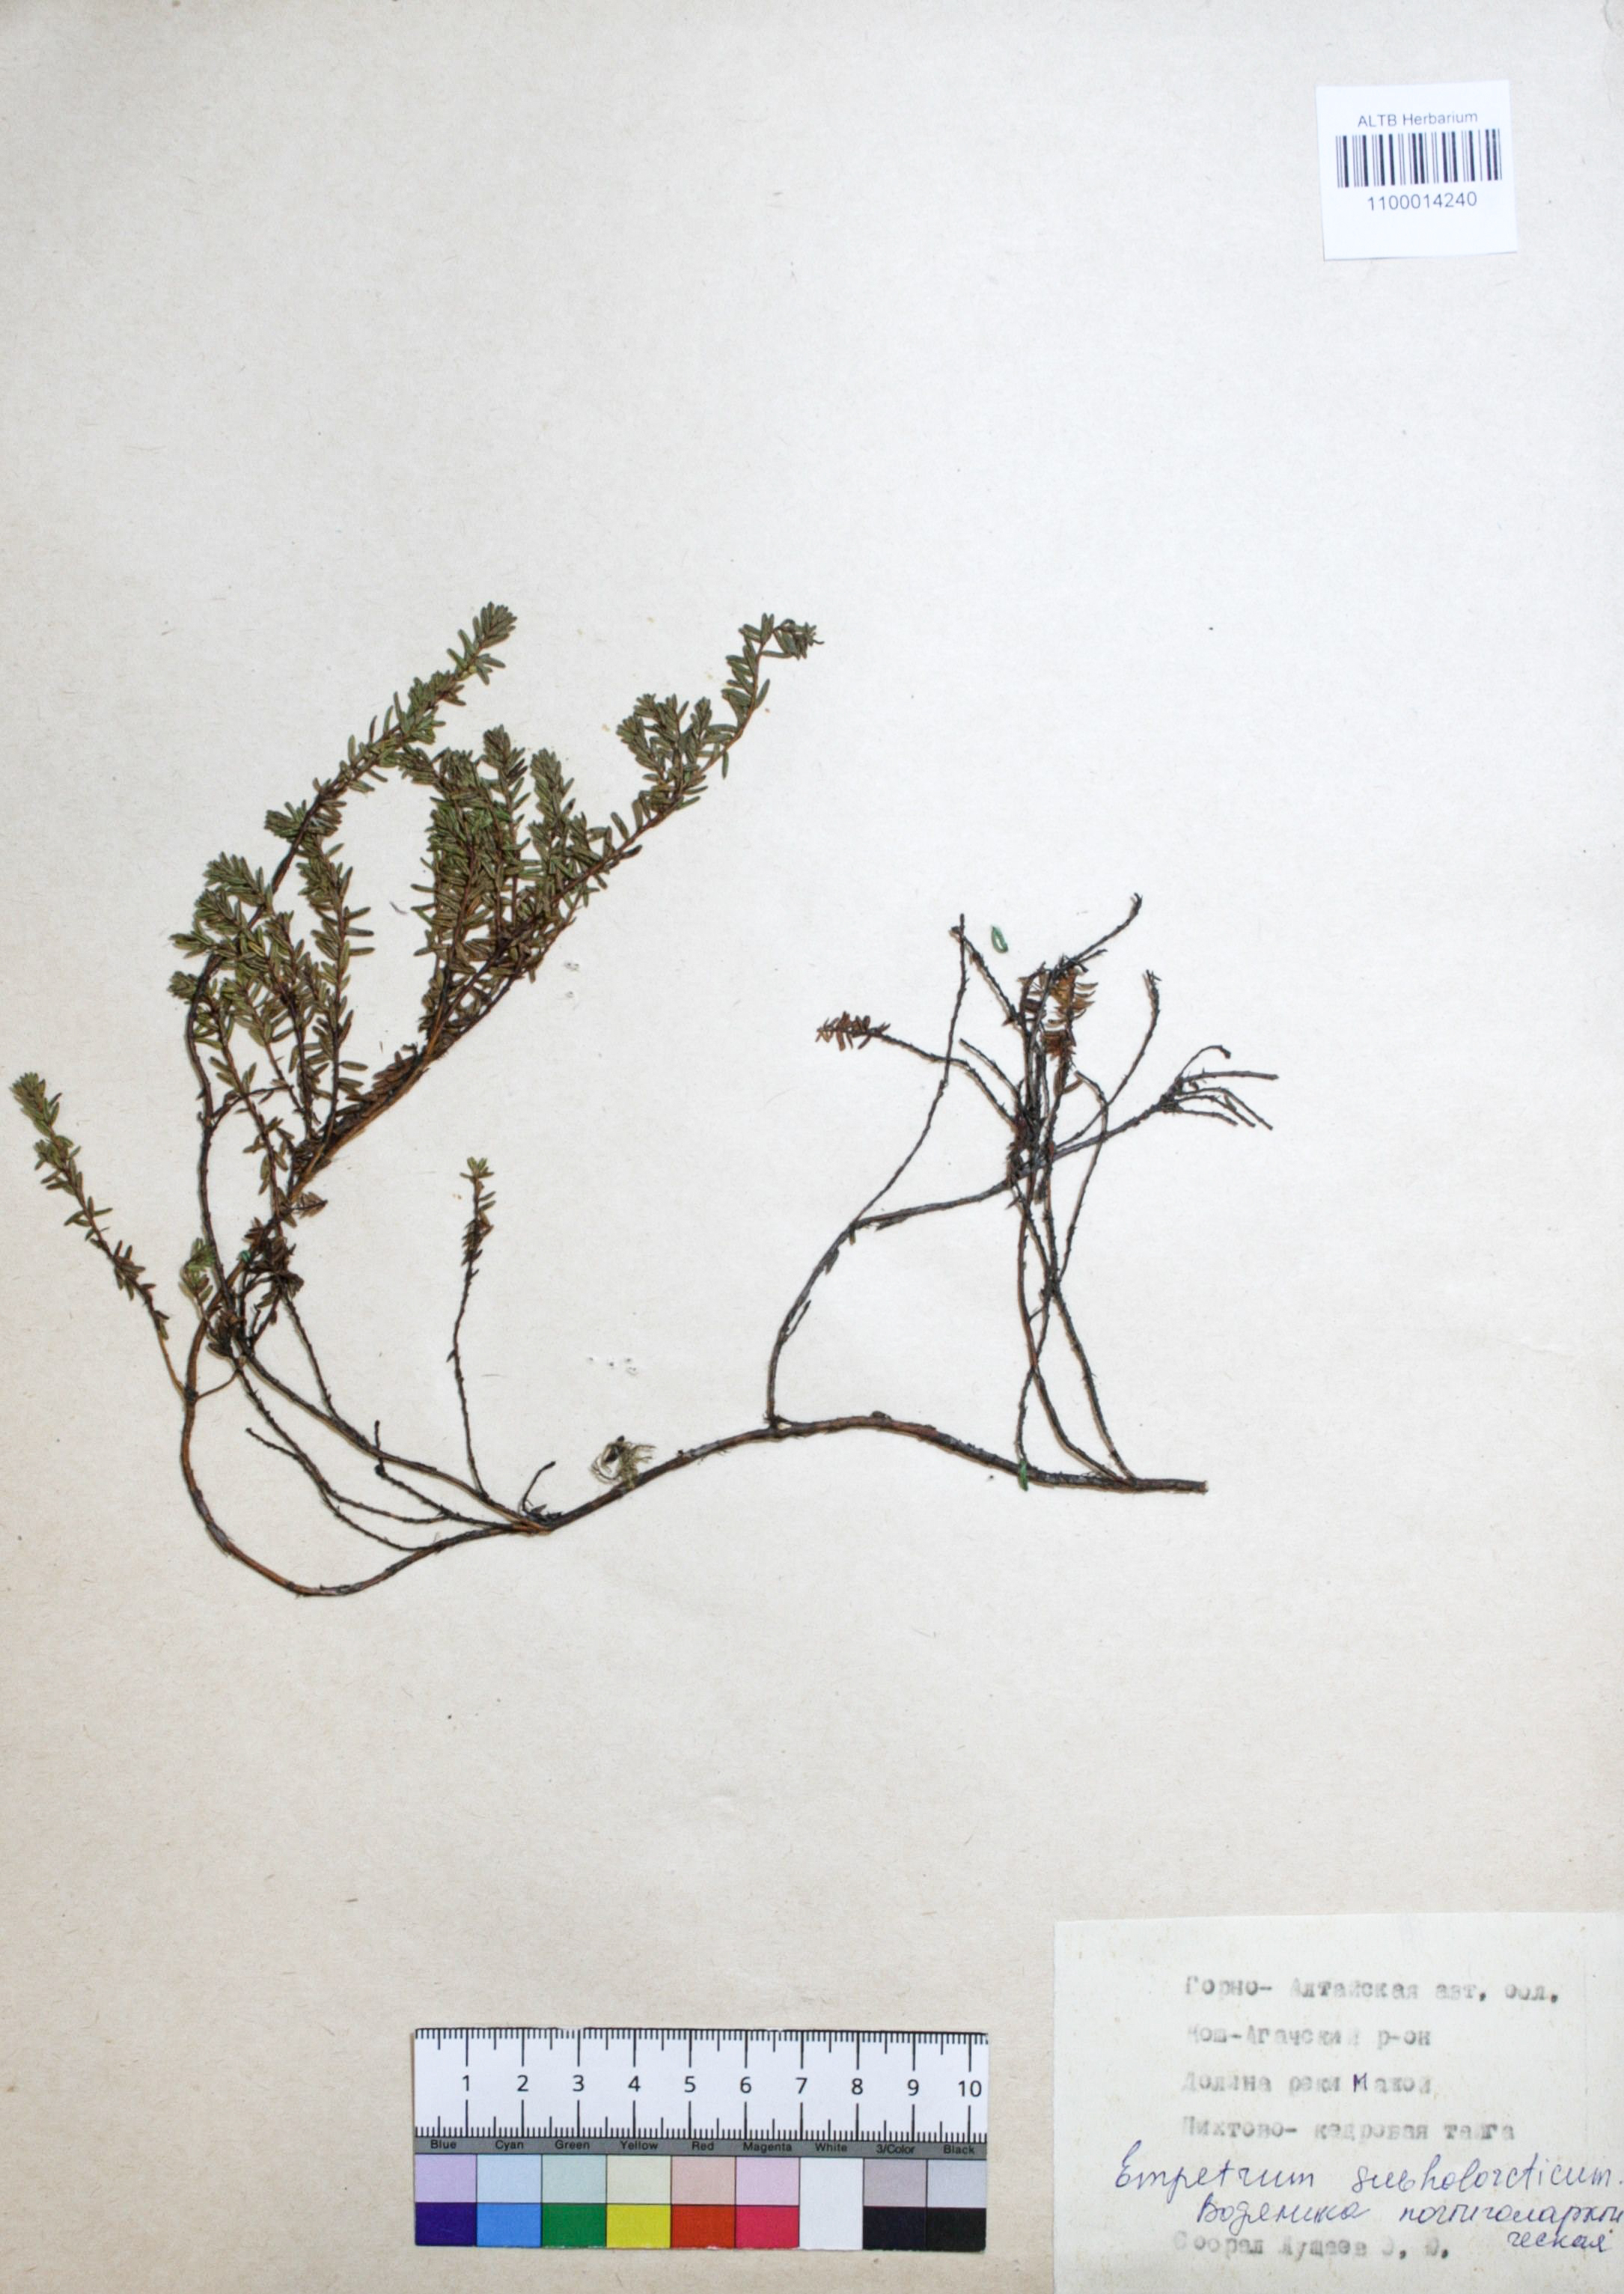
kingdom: Plantae
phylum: Tracheophyta
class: Magnoliopsida
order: Ericales
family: Ericaceae
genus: Empetrum
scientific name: Empetrum nigrum
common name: Black crowberry
